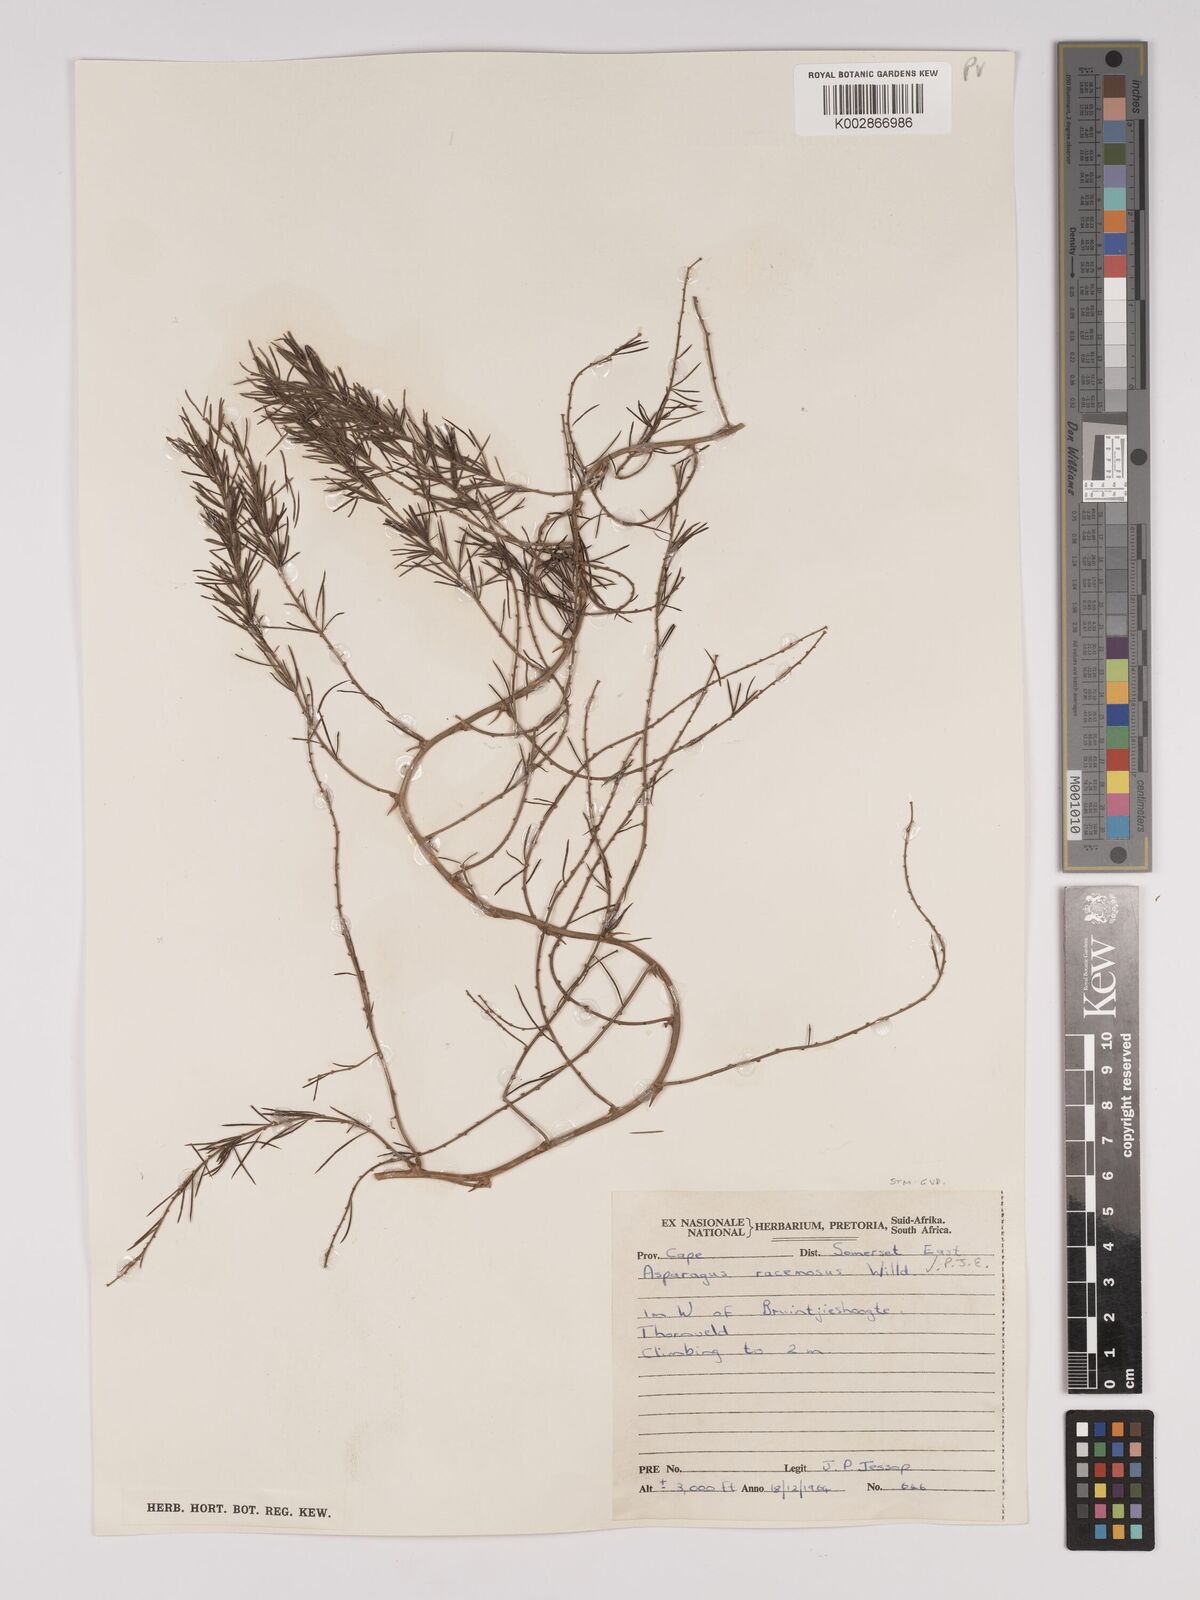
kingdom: Plantae
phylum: Tracheophyta
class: Liliopsida
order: Asparagales
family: Asparagaceae
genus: Asparagus
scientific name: Asparagus racemosus
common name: Asparagus-fern
